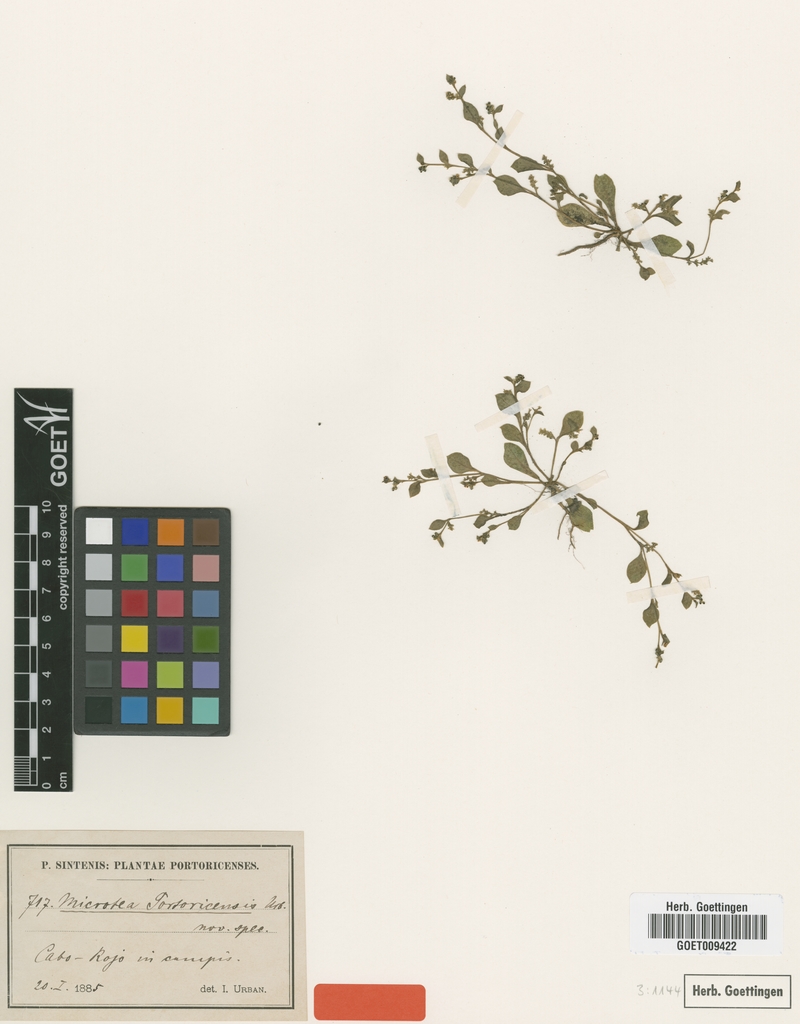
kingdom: Plantae
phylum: Tracheophyta
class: Magnoliopsida
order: Caryophyllales
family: Microteaceae
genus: Microtea
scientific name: Microtea portoricensis
